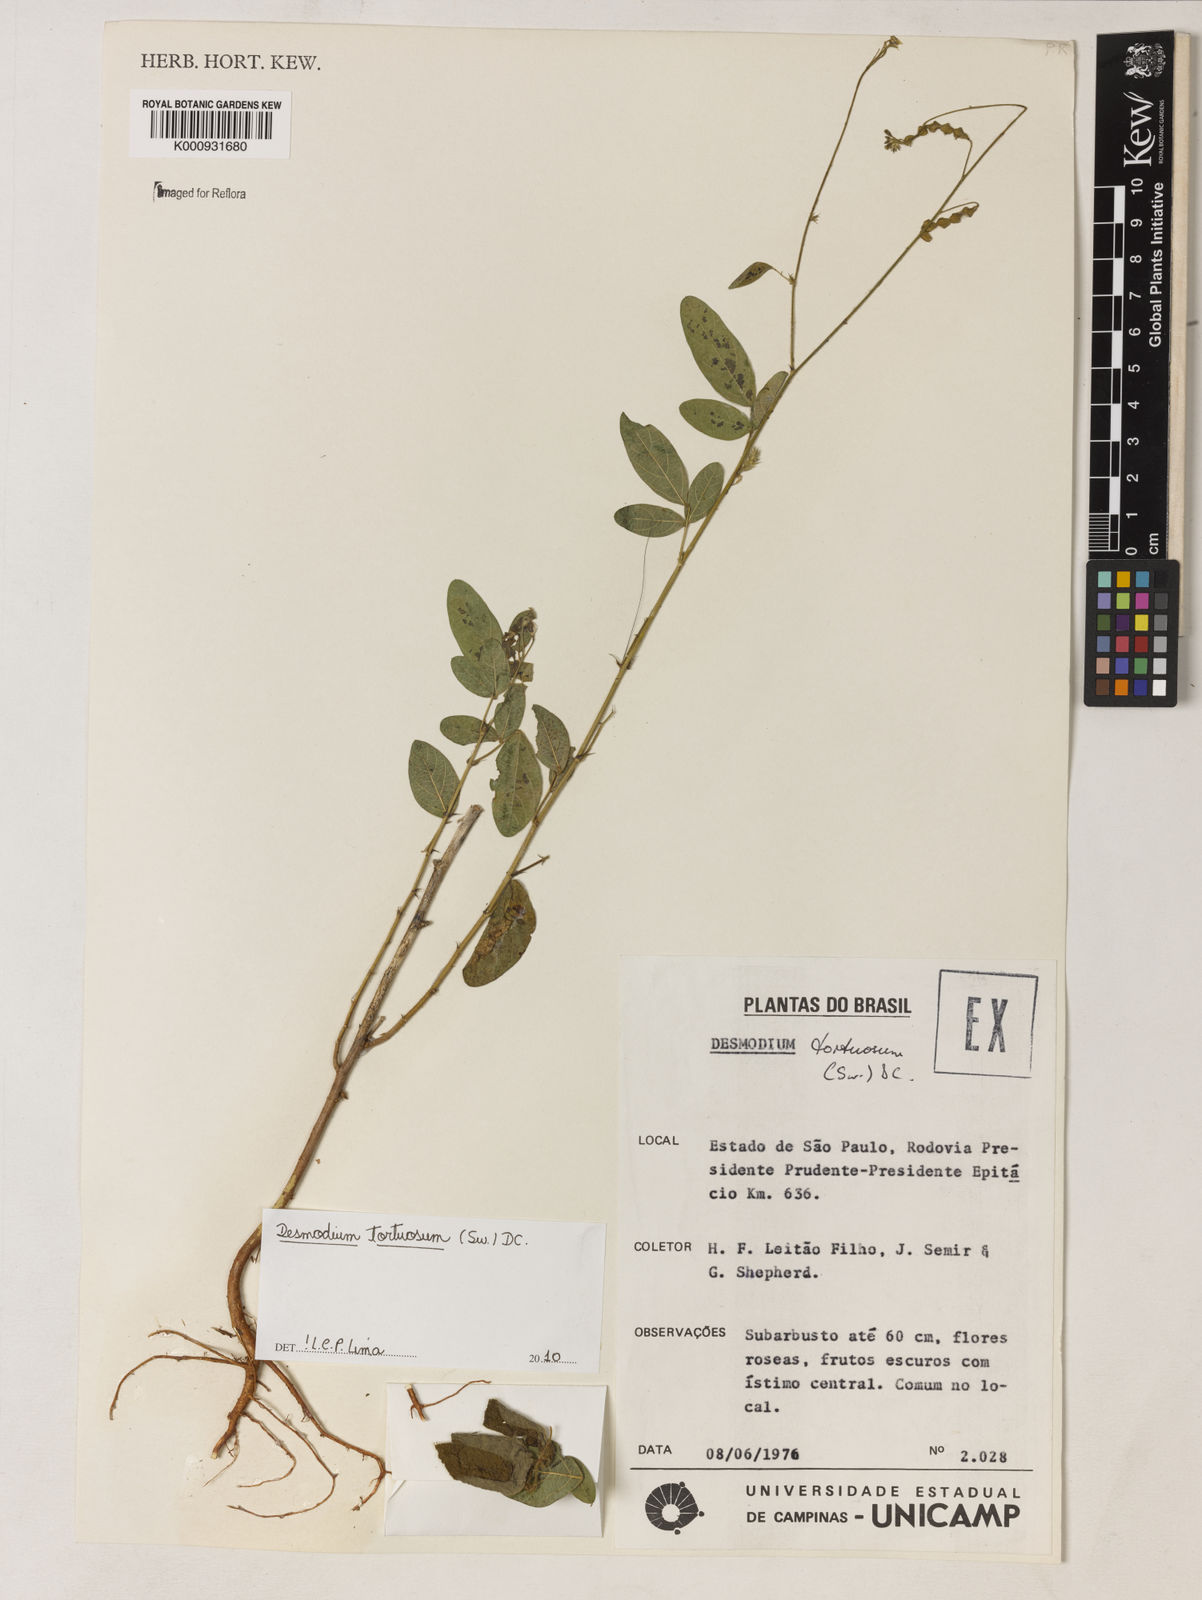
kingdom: Plantae
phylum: Tracheophyta
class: Magnoliopsida
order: Fabales
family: Fabaceae
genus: Desmodium
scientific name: Desmodium tortuosum
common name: Dixie ticktrefoil
